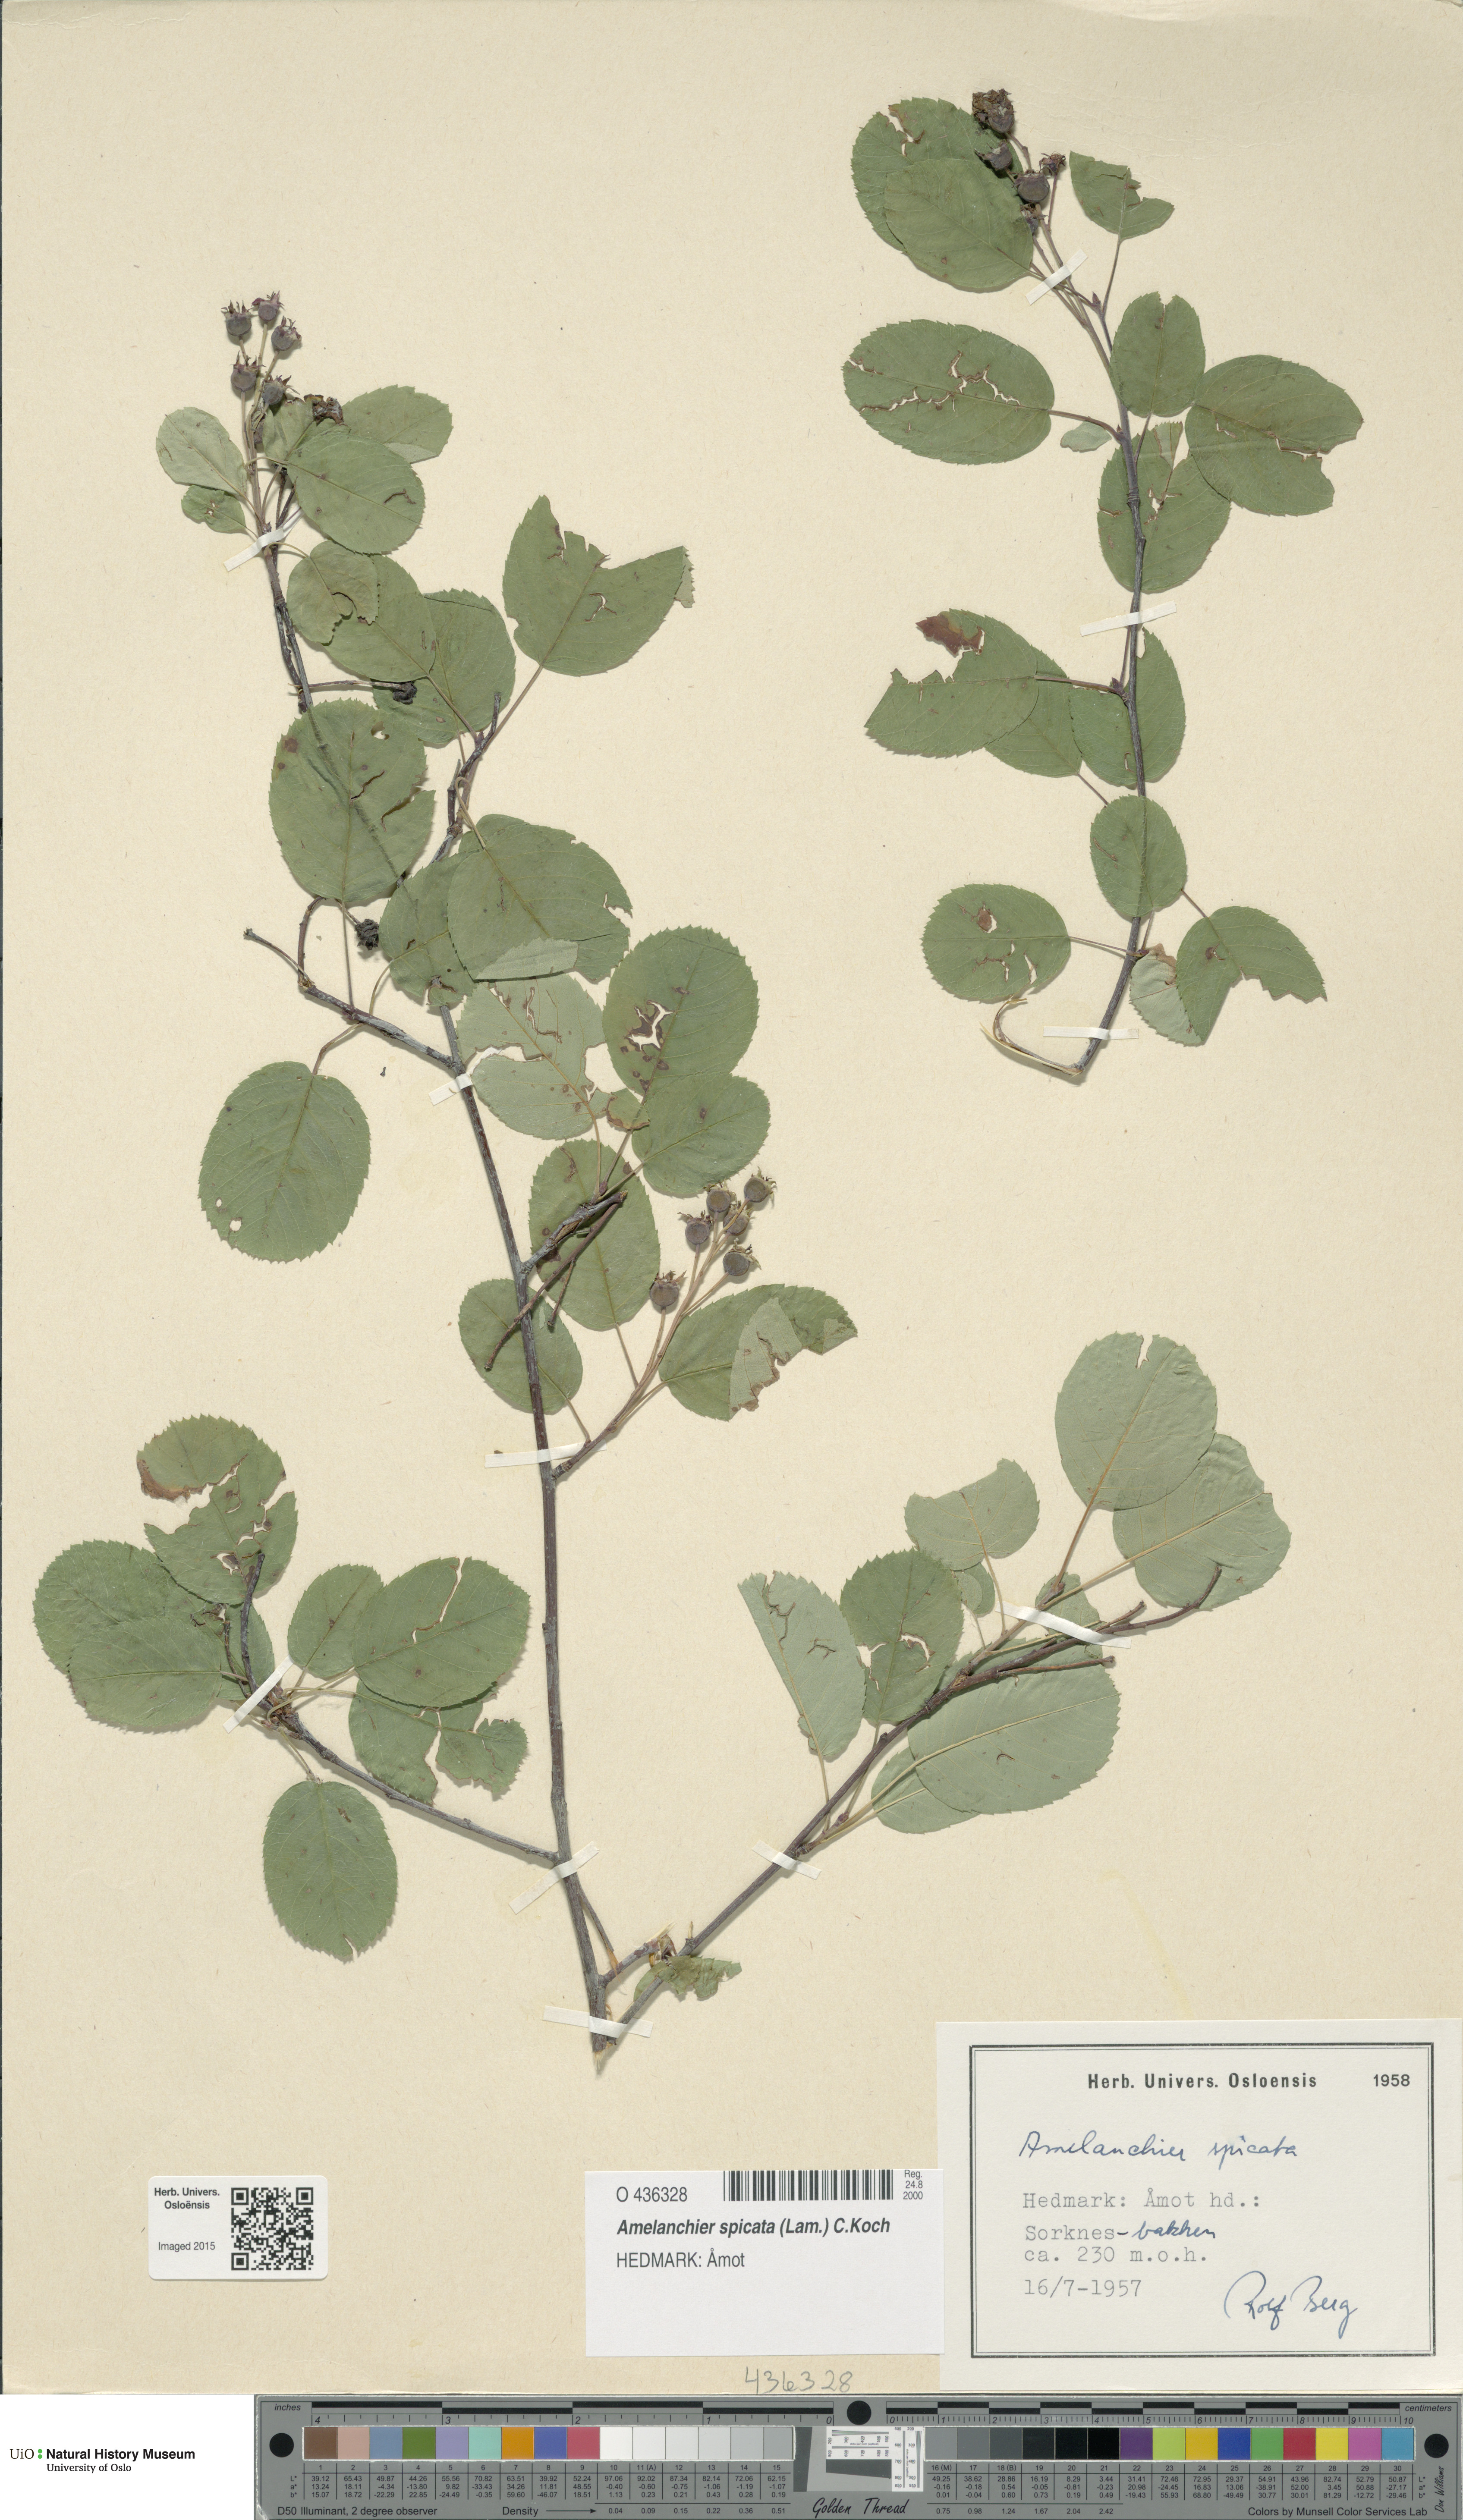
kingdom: Plantae
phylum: Tracheophyta
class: Magnoliopsida
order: Rosales
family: Rosaceae
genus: Amelanchier
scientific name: Amelanchier humilis
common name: Low juneberry
